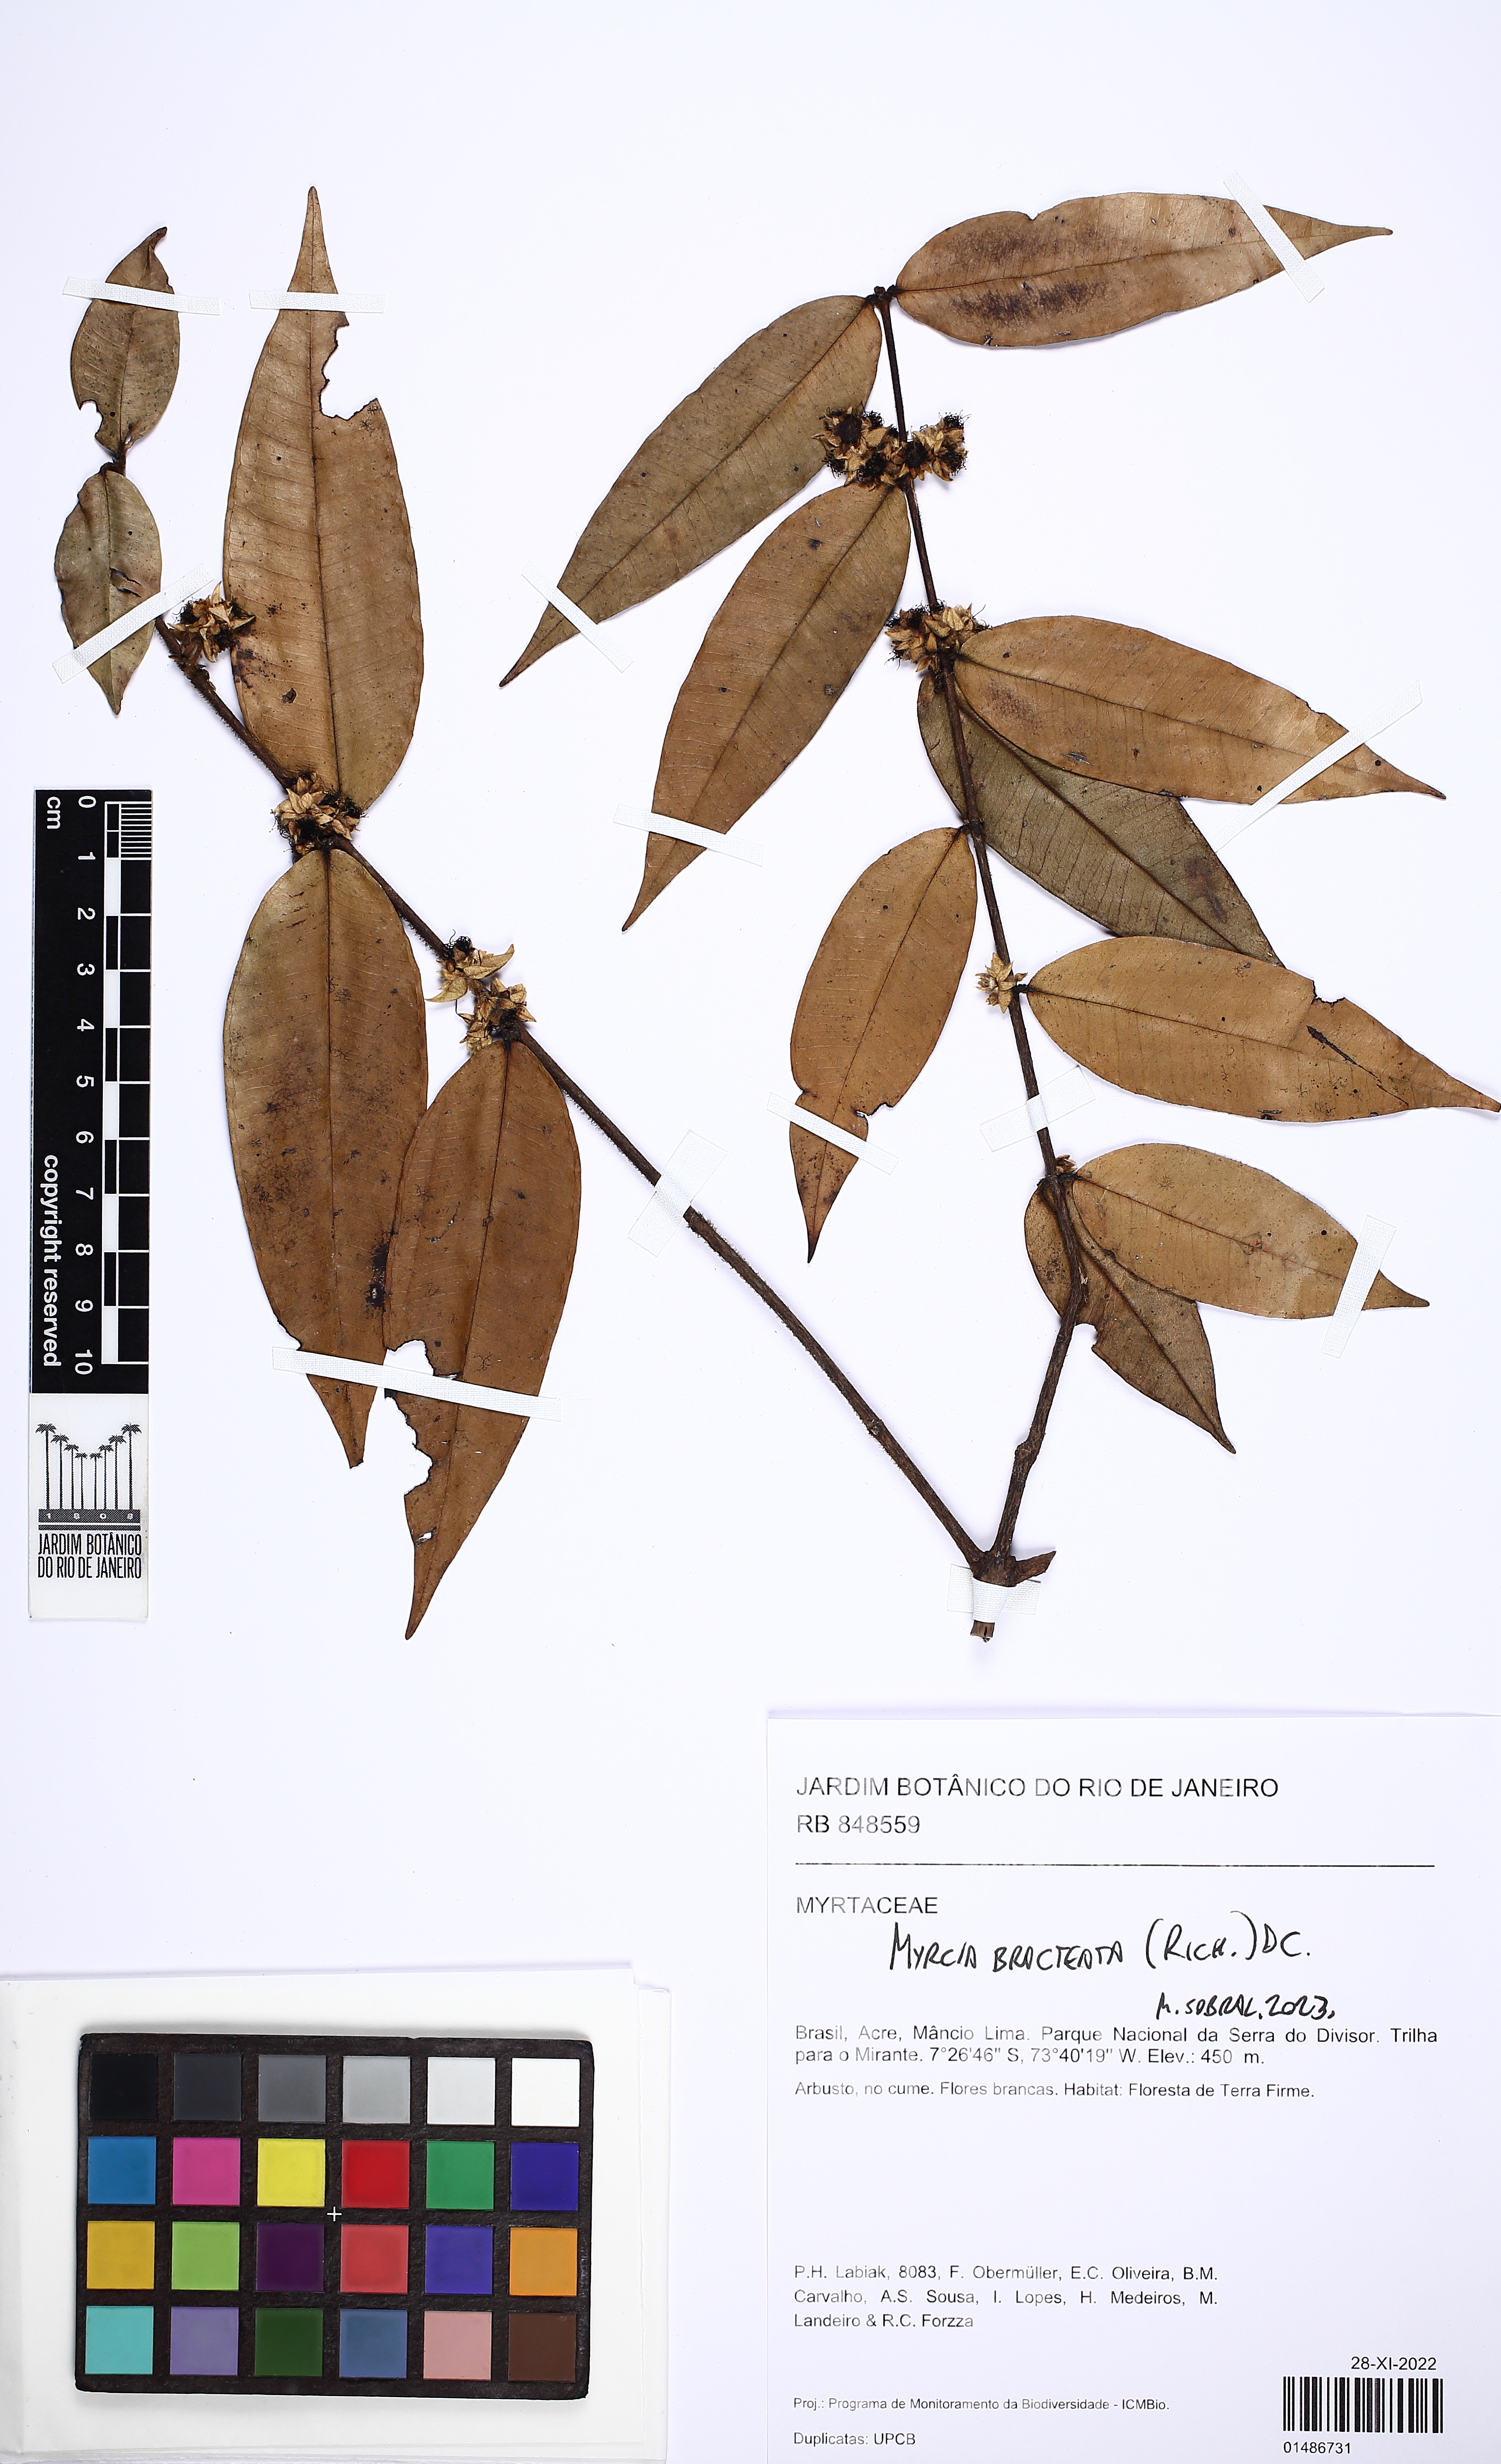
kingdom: Plantae
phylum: Tracheophyta
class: Magnoliopsida
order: Myrtales
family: Myrtaceae
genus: Myrcia
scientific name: Myrcia bracteata
